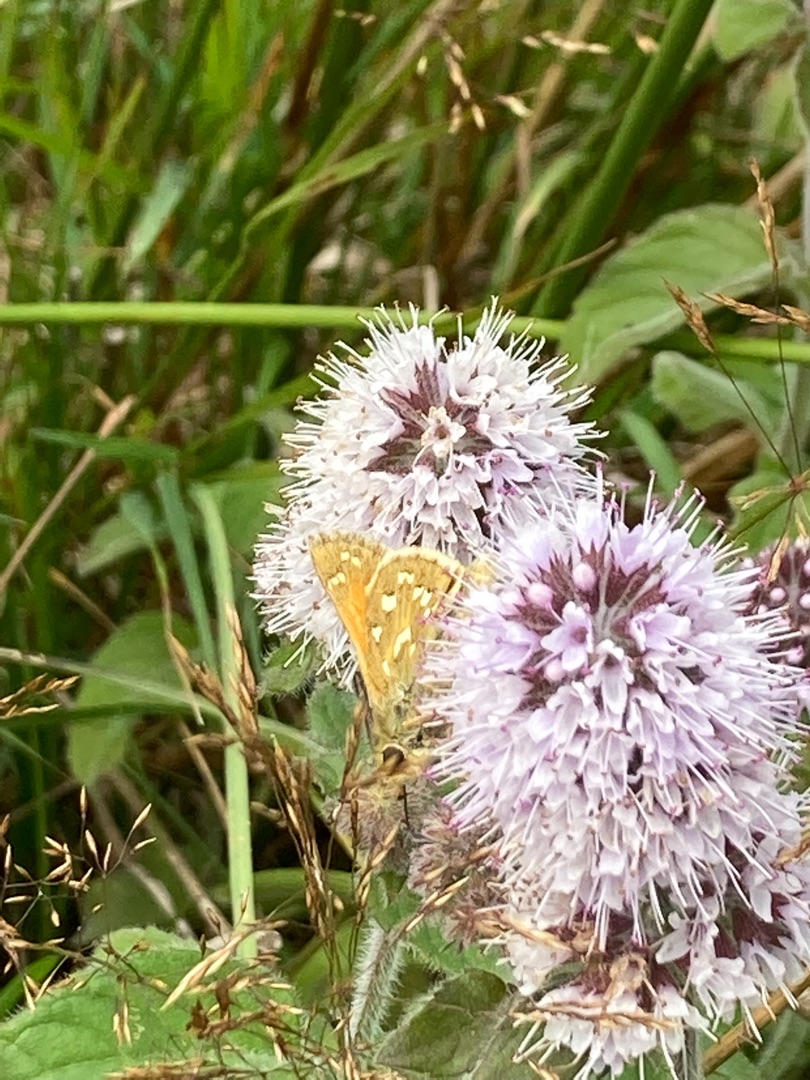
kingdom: Animalia
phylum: Arthropoda
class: Insecta
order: Lepidoptera
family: Hesperiidae
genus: Hesperia
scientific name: Hesperia comma
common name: Kommabredpande
